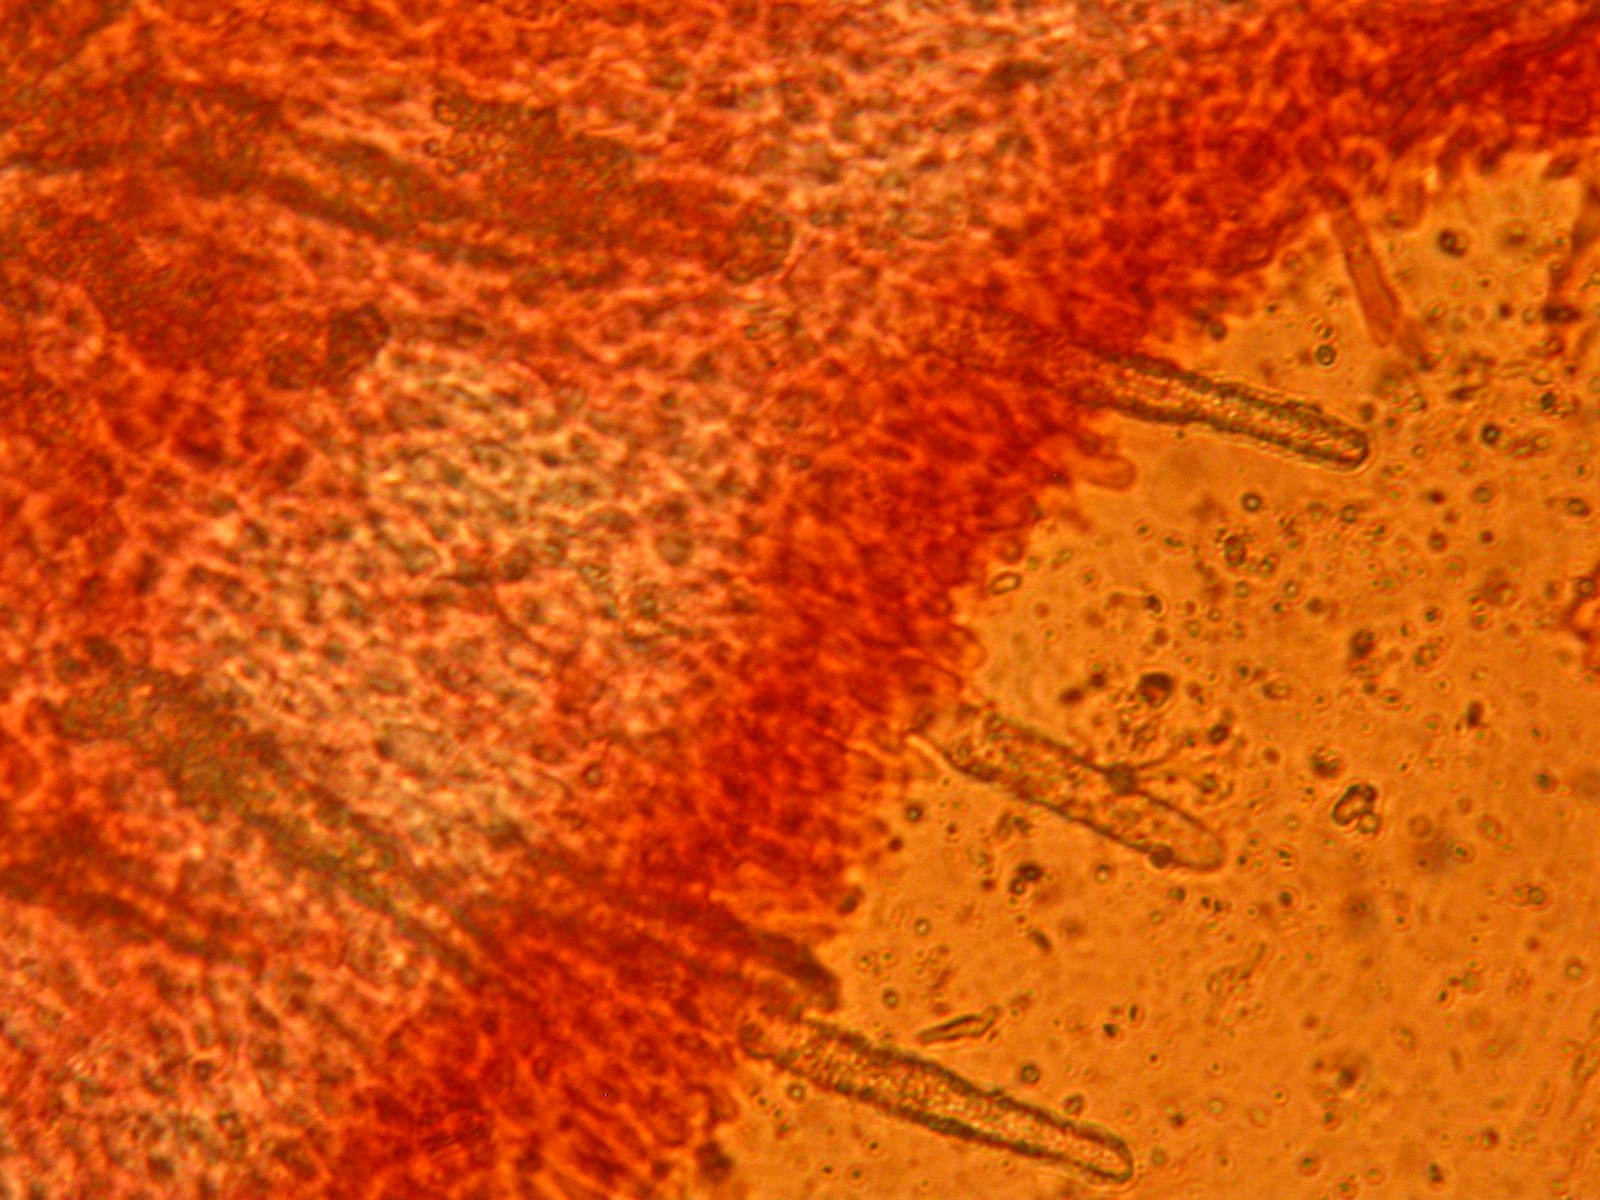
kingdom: Fungi
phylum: Basidiomycota
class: Agaricomycetes
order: Polyporales
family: Phanerochaetaceae
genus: Phanerochaete
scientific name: Phanerochaete sordida
